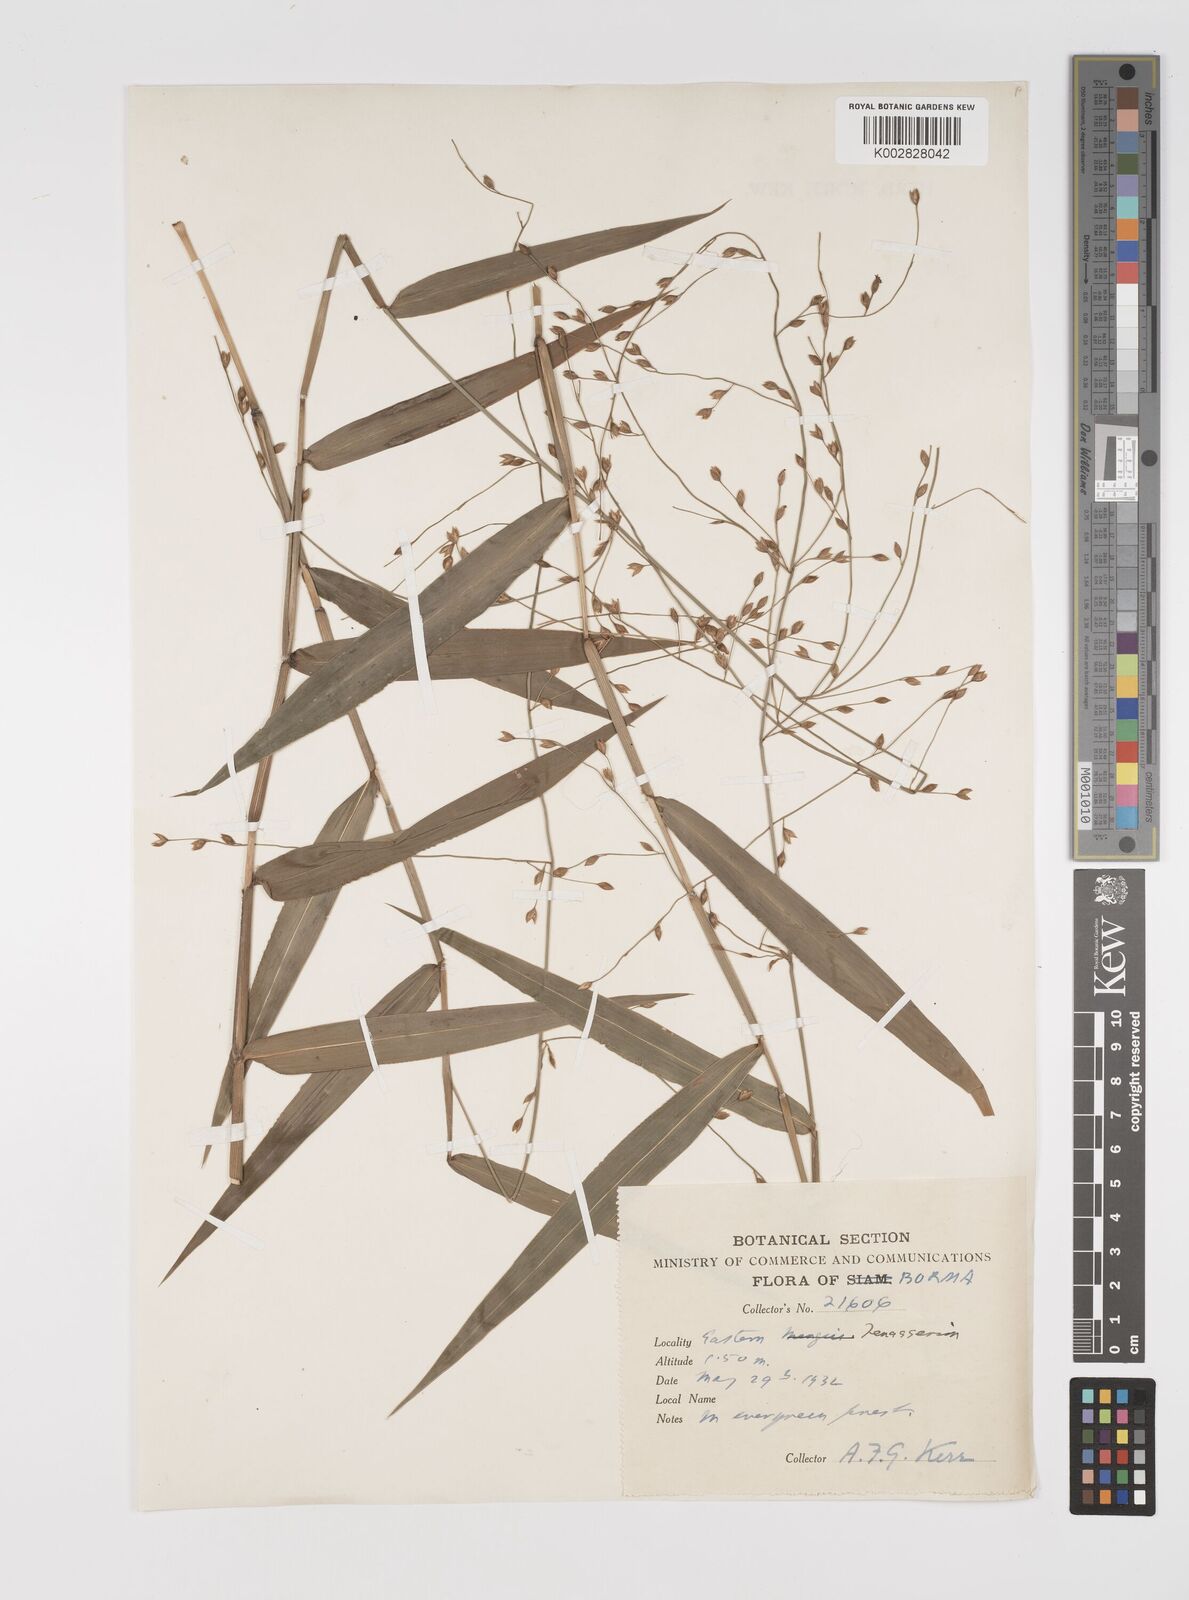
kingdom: Plantae
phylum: Tracheophyta
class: Liliopsida
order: Poales
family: Poaceae
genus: Acroceras
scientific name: Acroceras tonkinense
